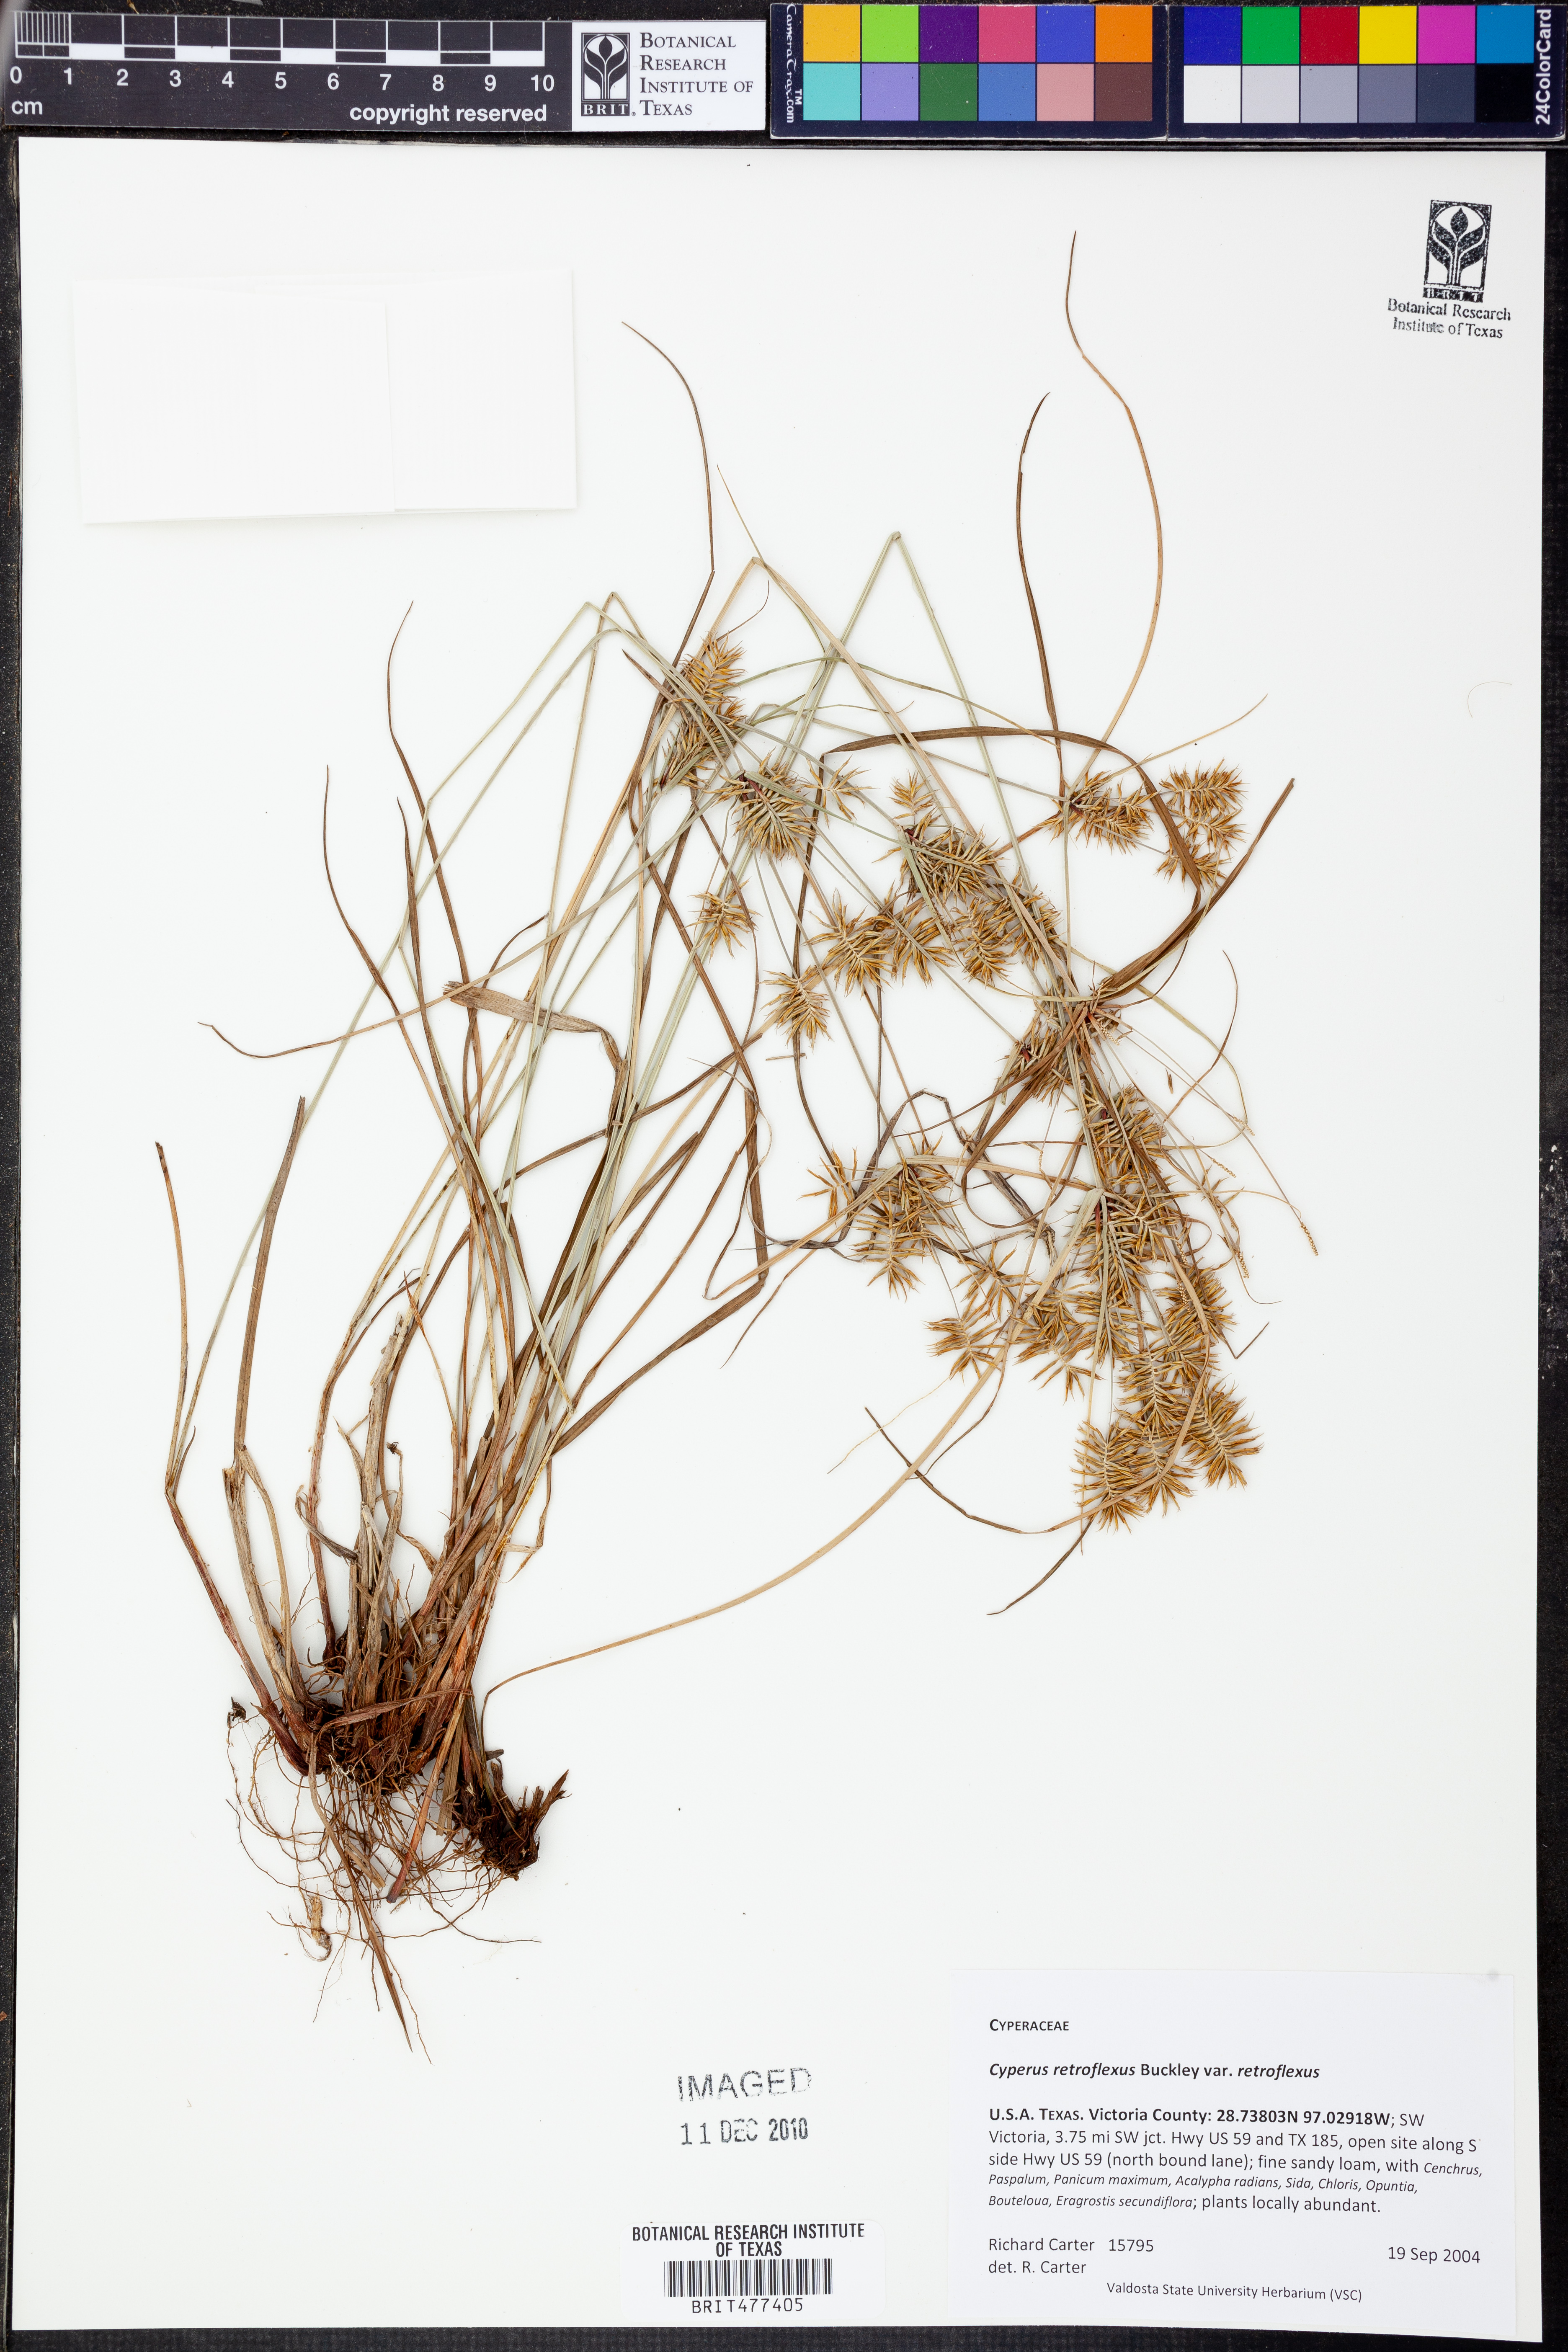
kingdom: Plantae
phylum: Tracheophyta
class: Liliopsida
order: Poales
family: Cyperaceae
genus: Cyperus
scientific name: Cyperus retroflexus
